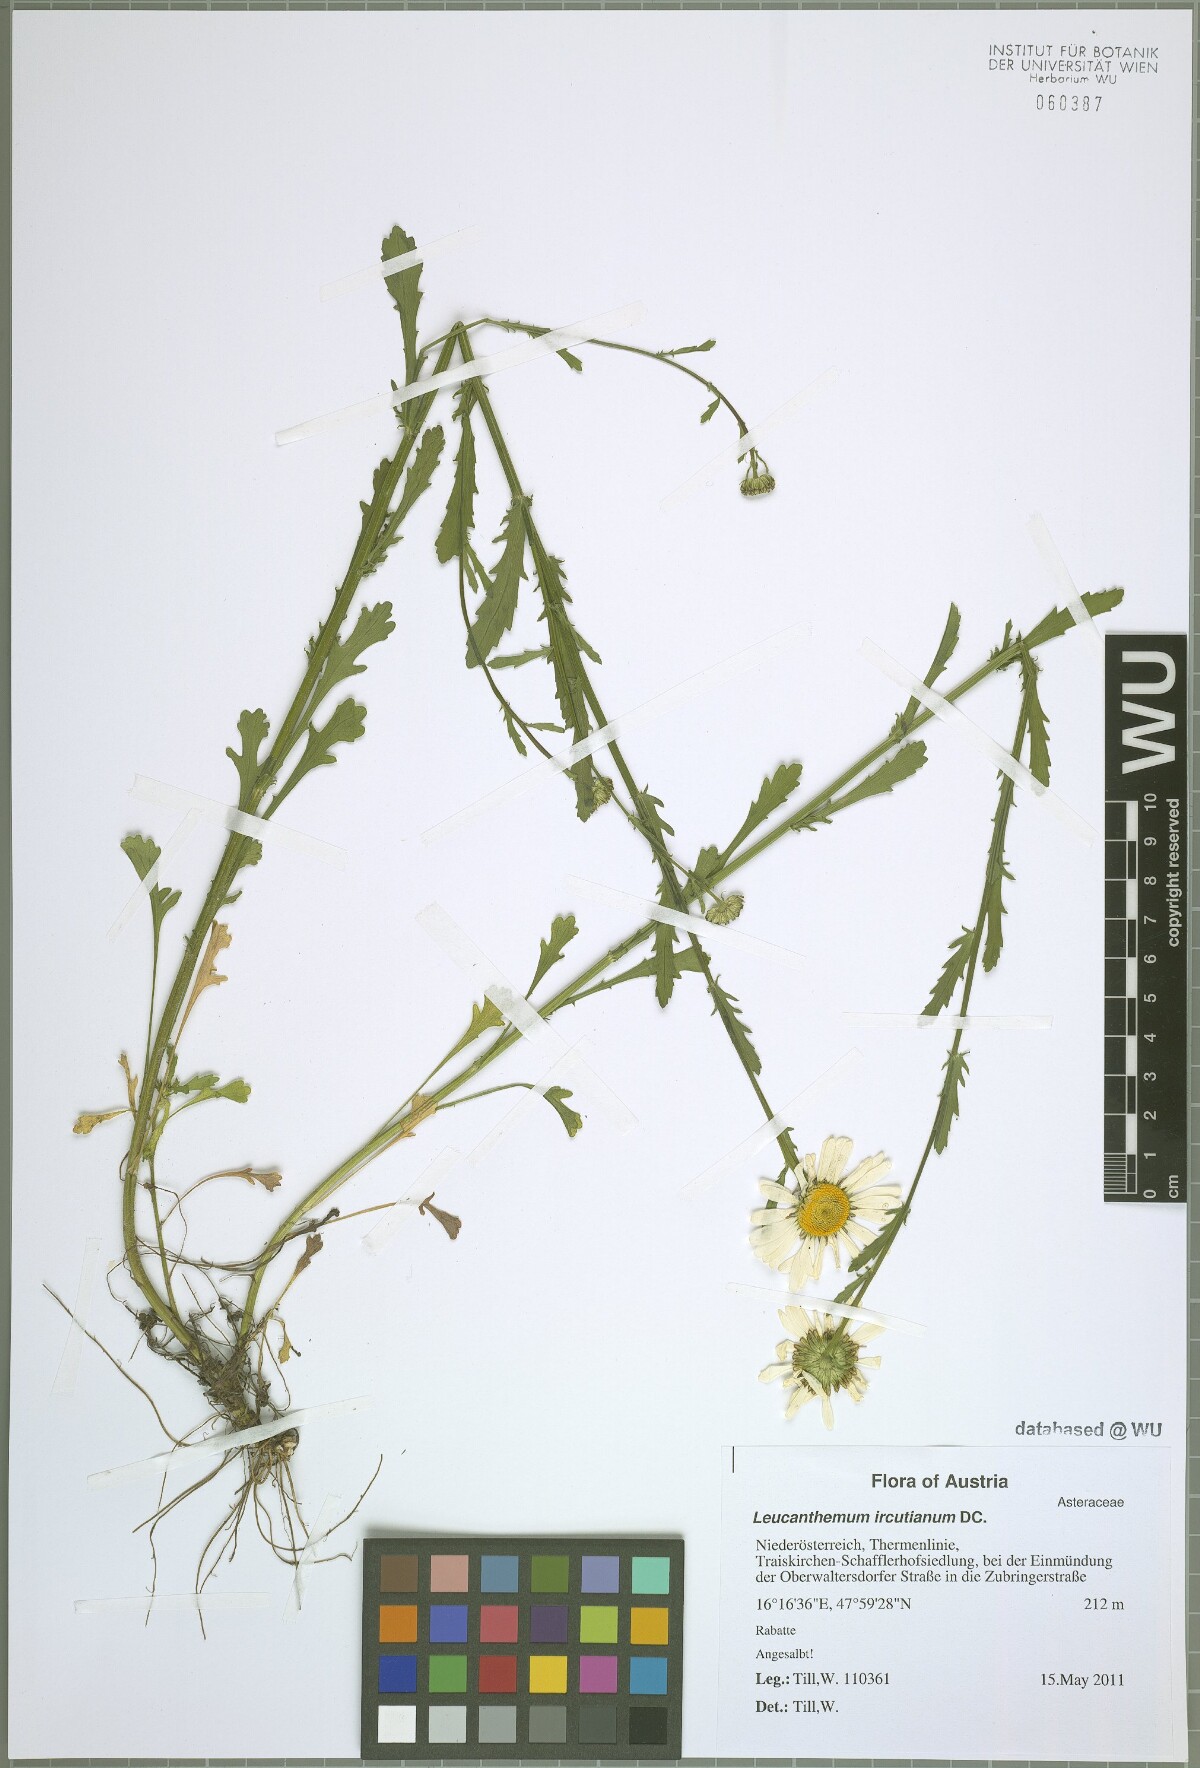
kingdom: Plantae
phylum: Tracheophyta
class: Magnoliopsida
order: Asterales
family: Asteraceae
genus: Leucanthemum
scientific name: Leucanthemum ircutianum
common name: Daisy
